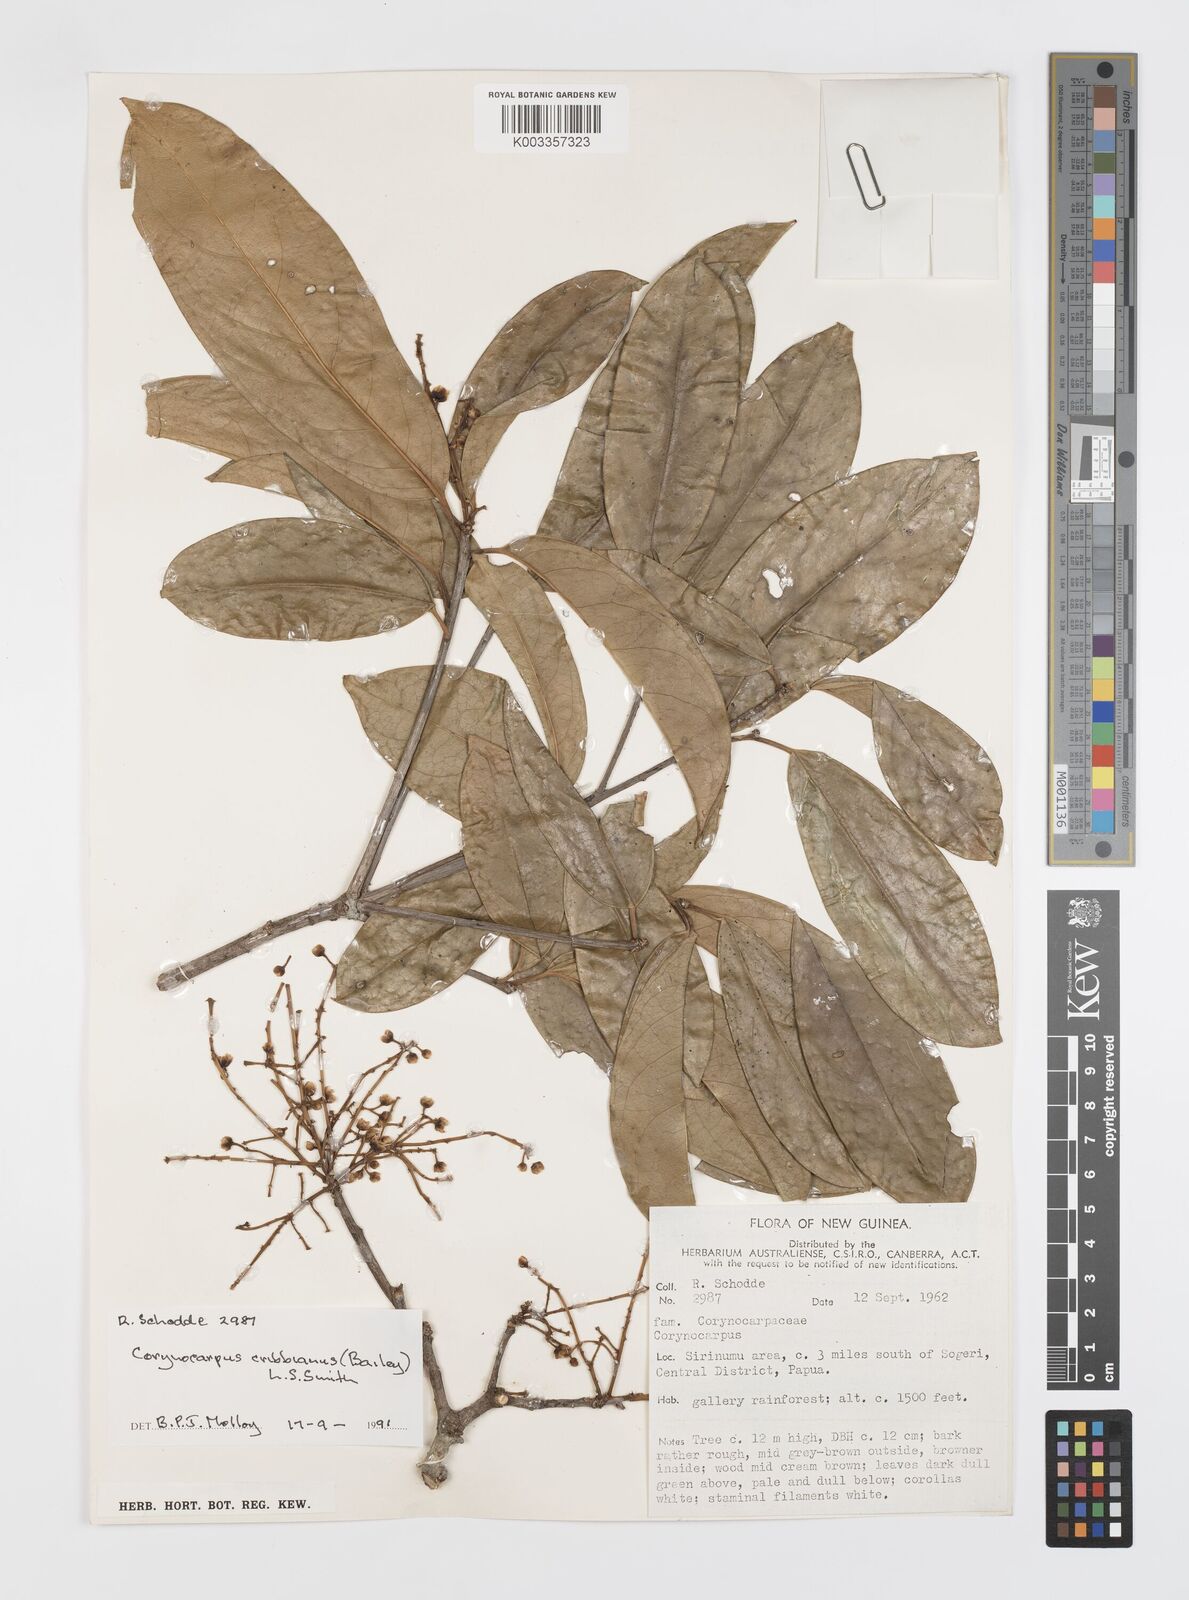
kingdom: Plantae
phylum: Tracheophyta
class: Magnoliopsida
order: Cucurbitales
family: Corynocarpaceae
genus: Corynocarpus
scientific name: Corynocarpus cribbianus
